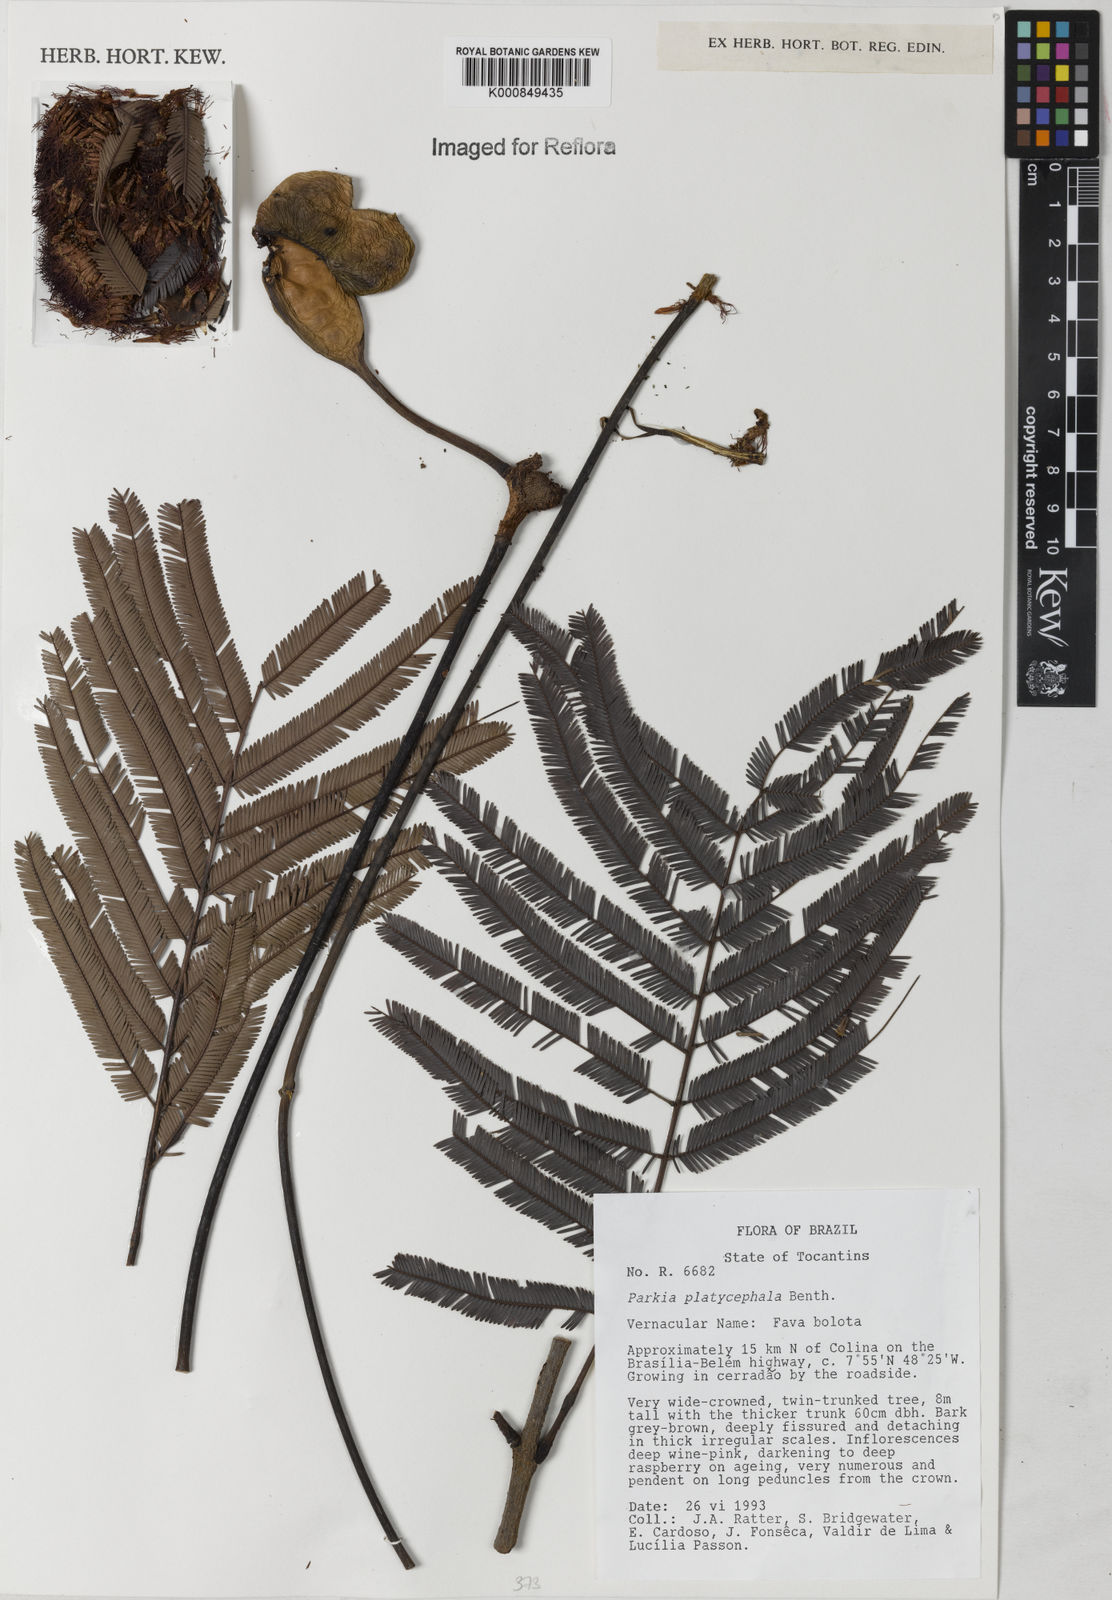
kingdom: Plantae
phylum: Tracheophyta
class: Magnoliopsida
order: Fabales
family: Fabaceae
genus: Parkia
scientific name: Parkia platycephala
